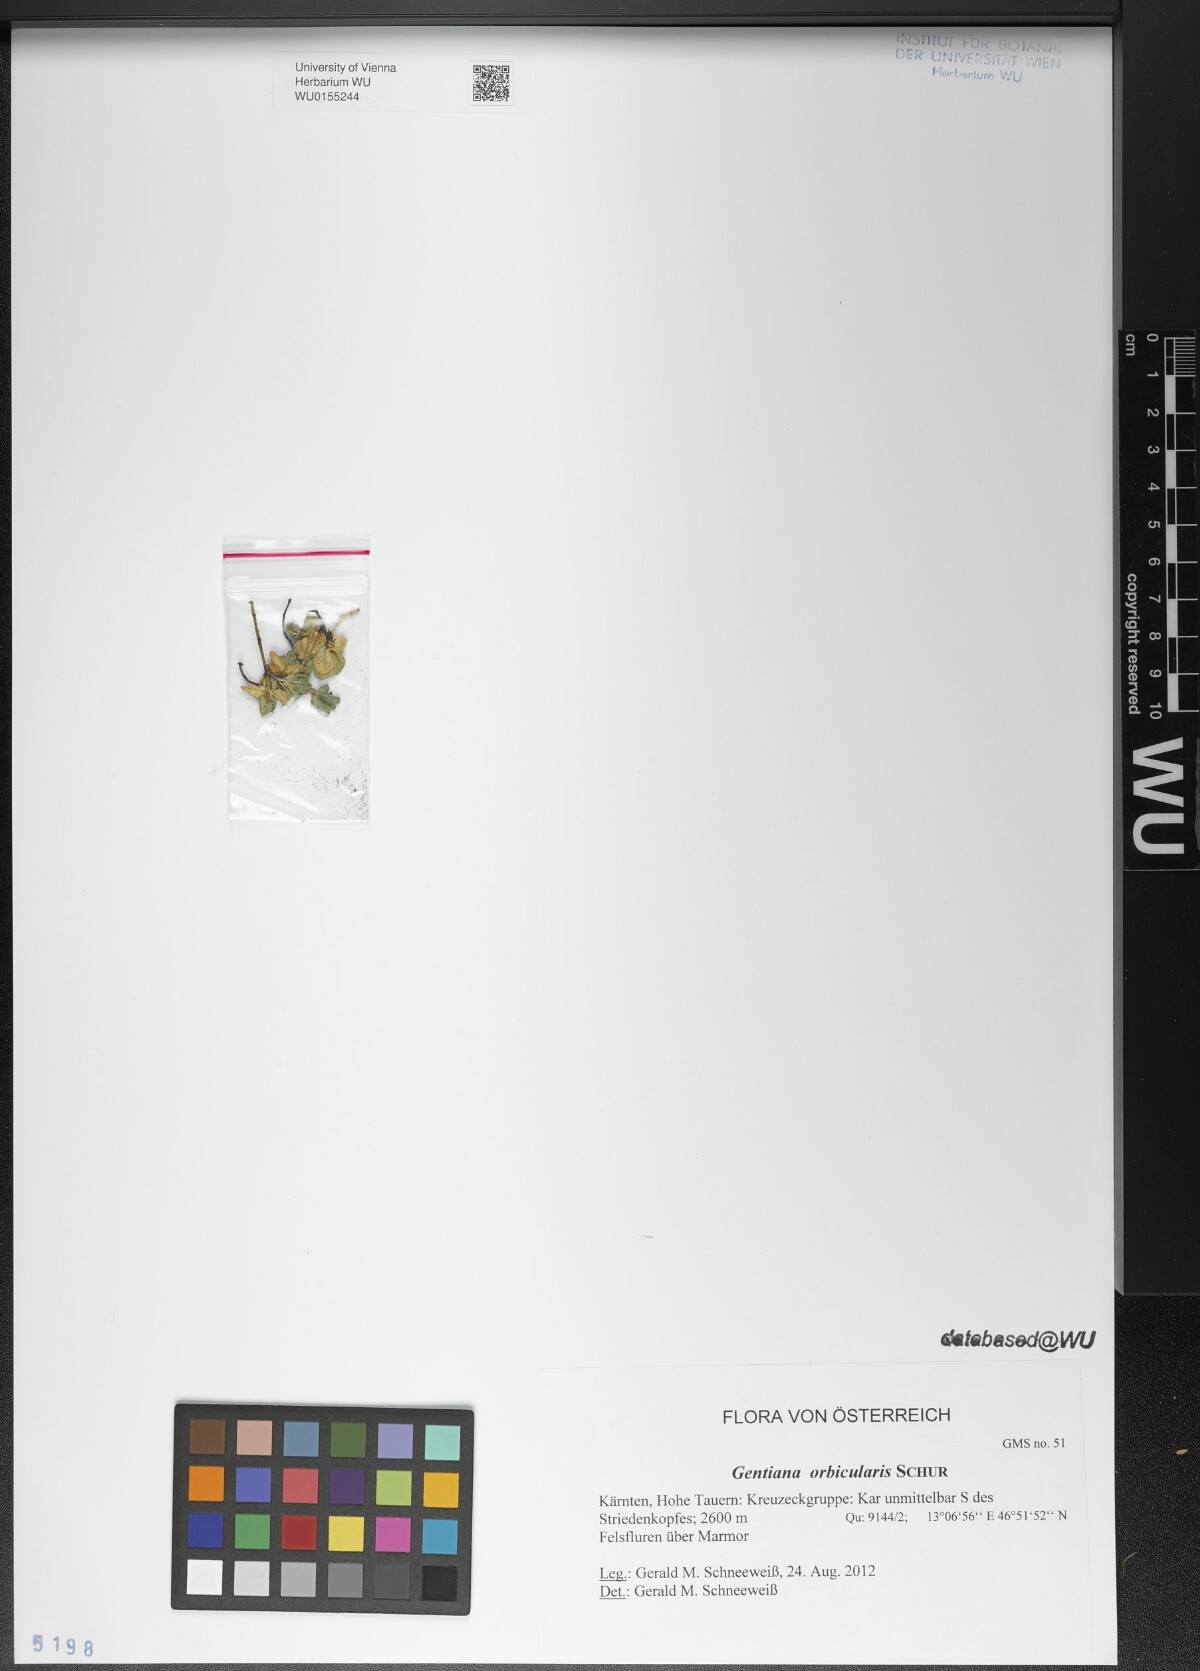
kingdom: Plantae
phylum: Tracheophyta
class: Magnoliopsida
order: Gentianales
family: Gentianaceae
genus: Gentiana
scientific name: Gentiana orbicularis
